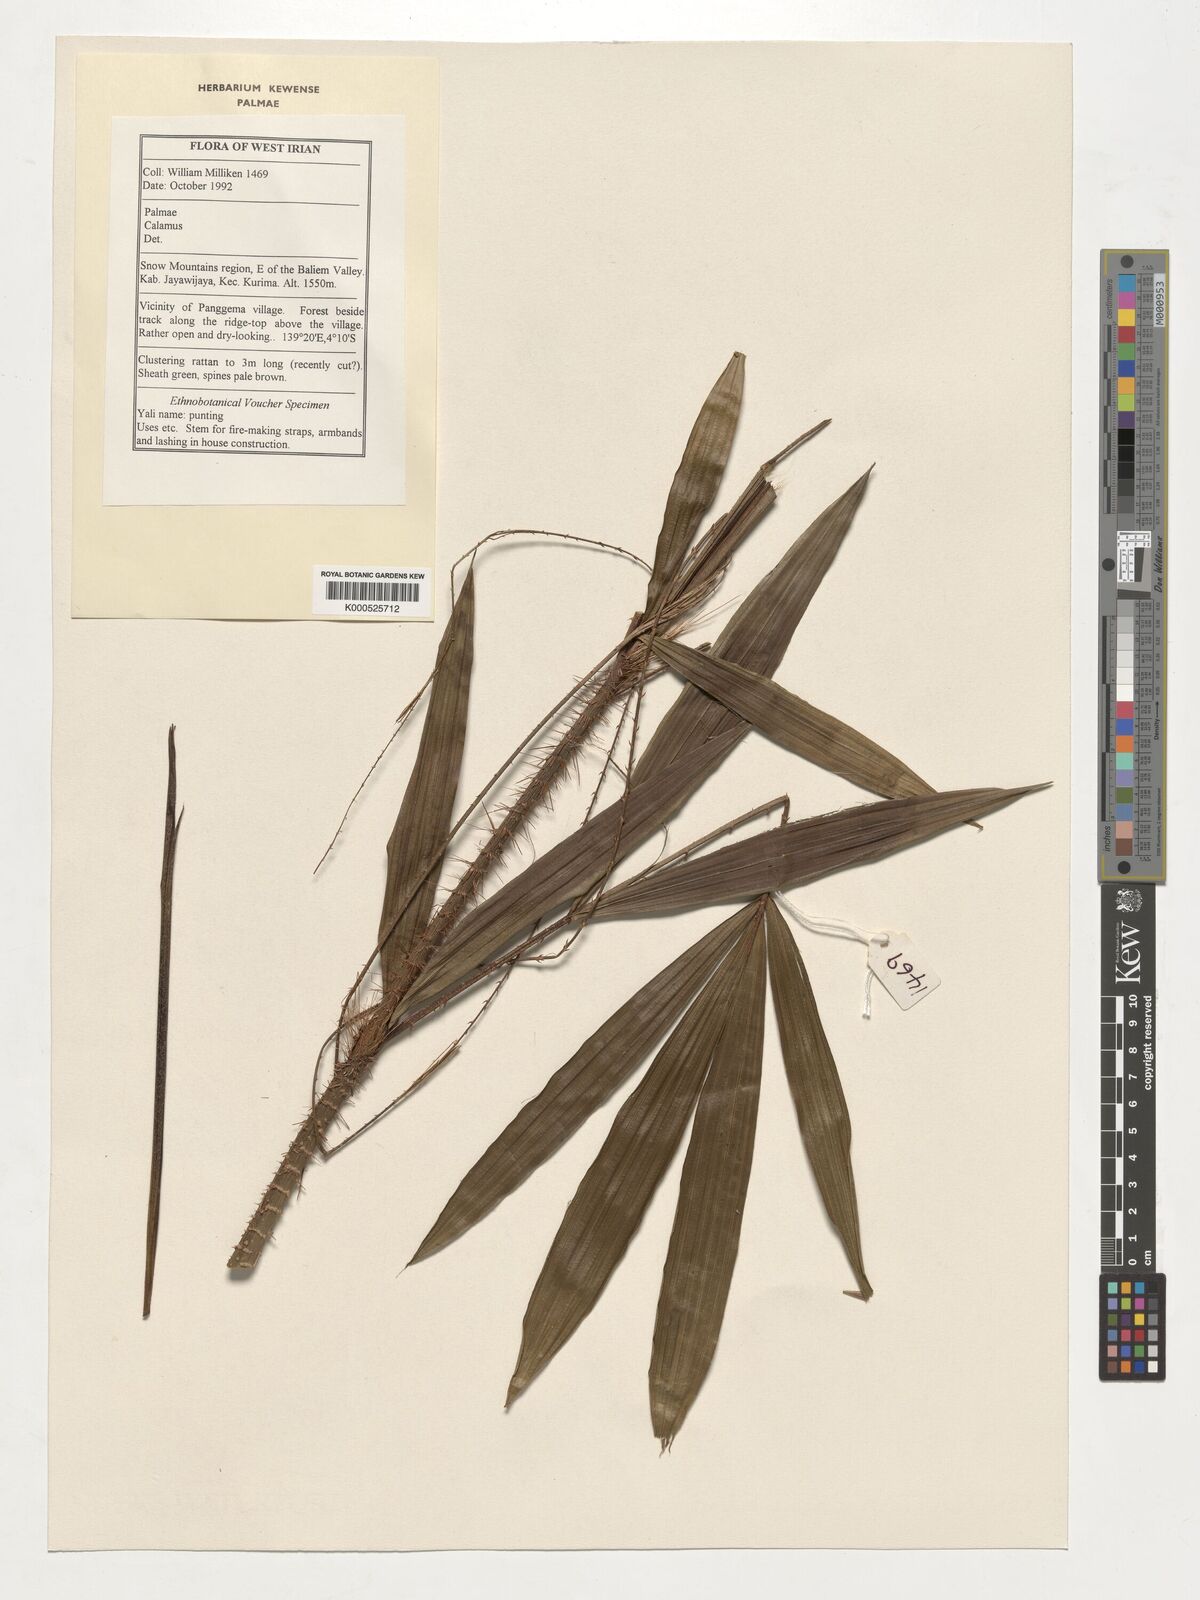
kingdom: Plantae
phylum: Tracheophyta
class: Liliopsida
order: Arecales
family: Arecaceae
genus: Calamus
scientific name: Calamus
